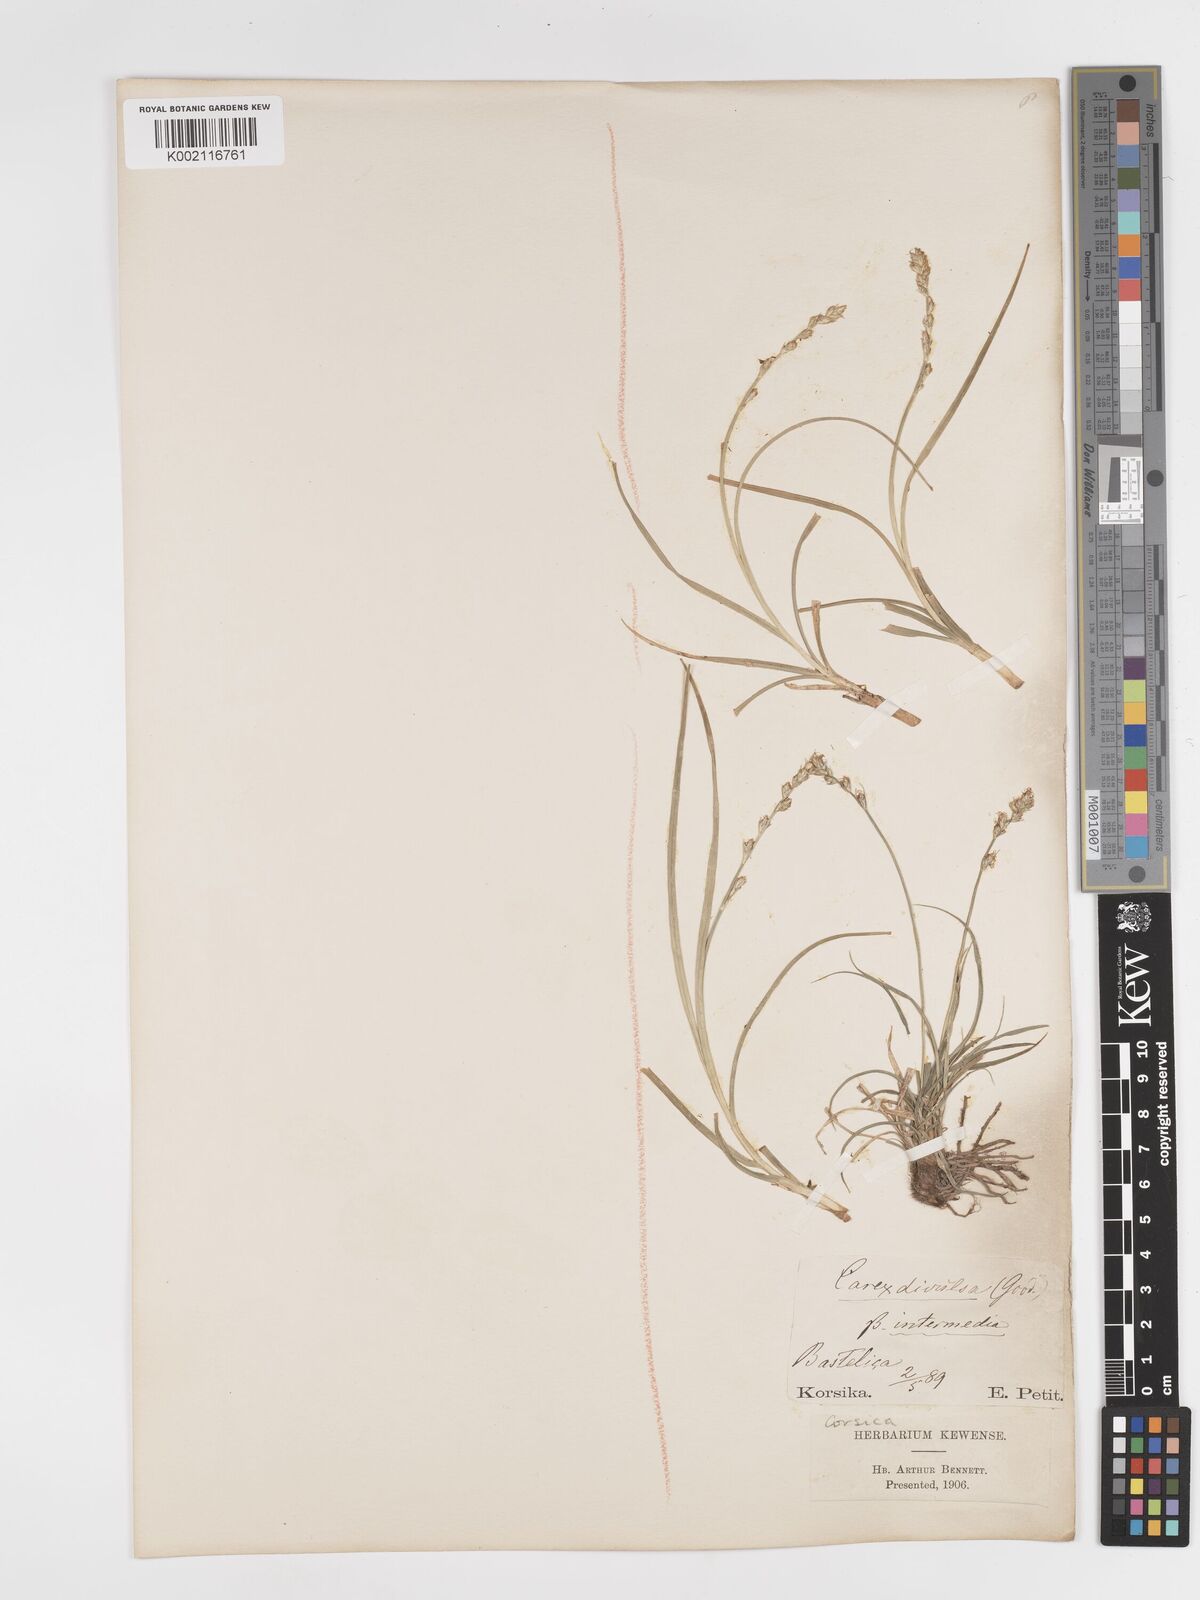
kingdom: Plantae
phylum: Tracheophyta
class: Liliopsida
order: Poales
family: Cyperaceae
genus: Carex
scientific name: Carex divulsa
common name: Grassland sedge
